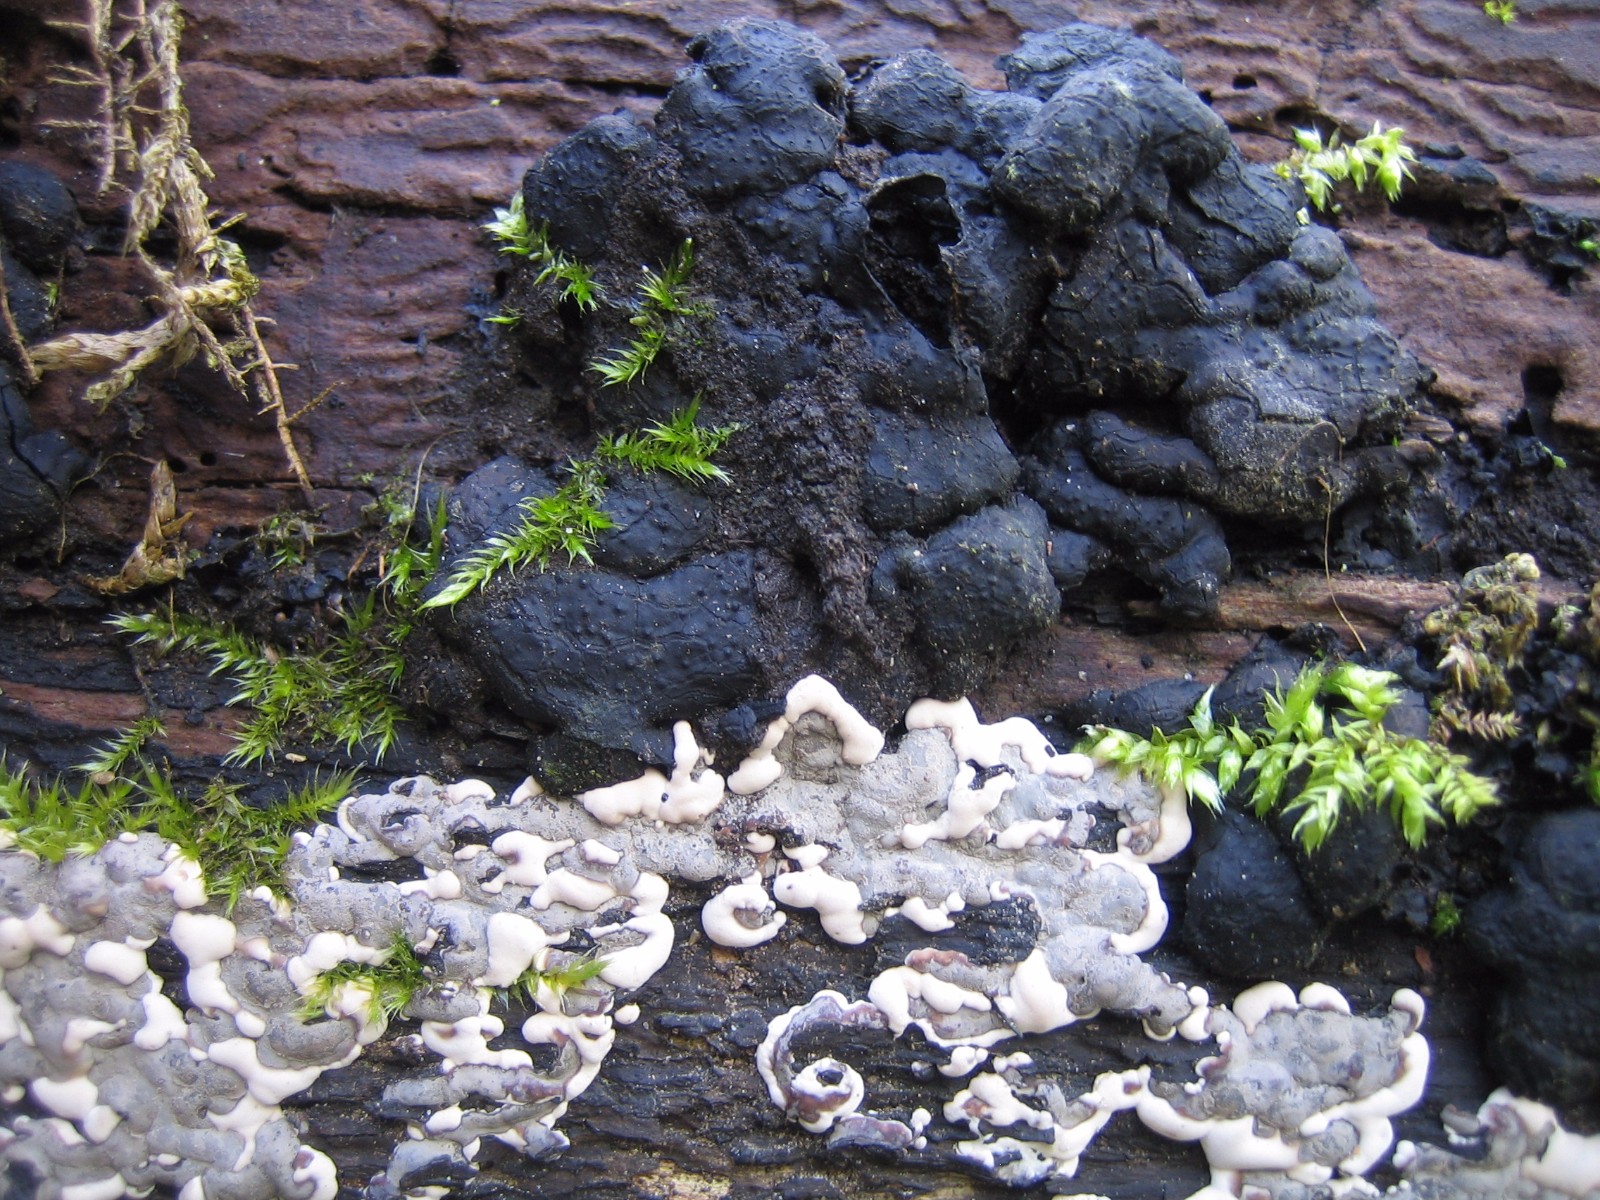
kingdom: Fungi
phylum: Ascomycota
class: Sordariomycetes
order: Xylariales
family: Xylariaceae
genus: Kretzschmaria
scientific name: Kretzschmaria deusta
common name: stor kulsvamp
